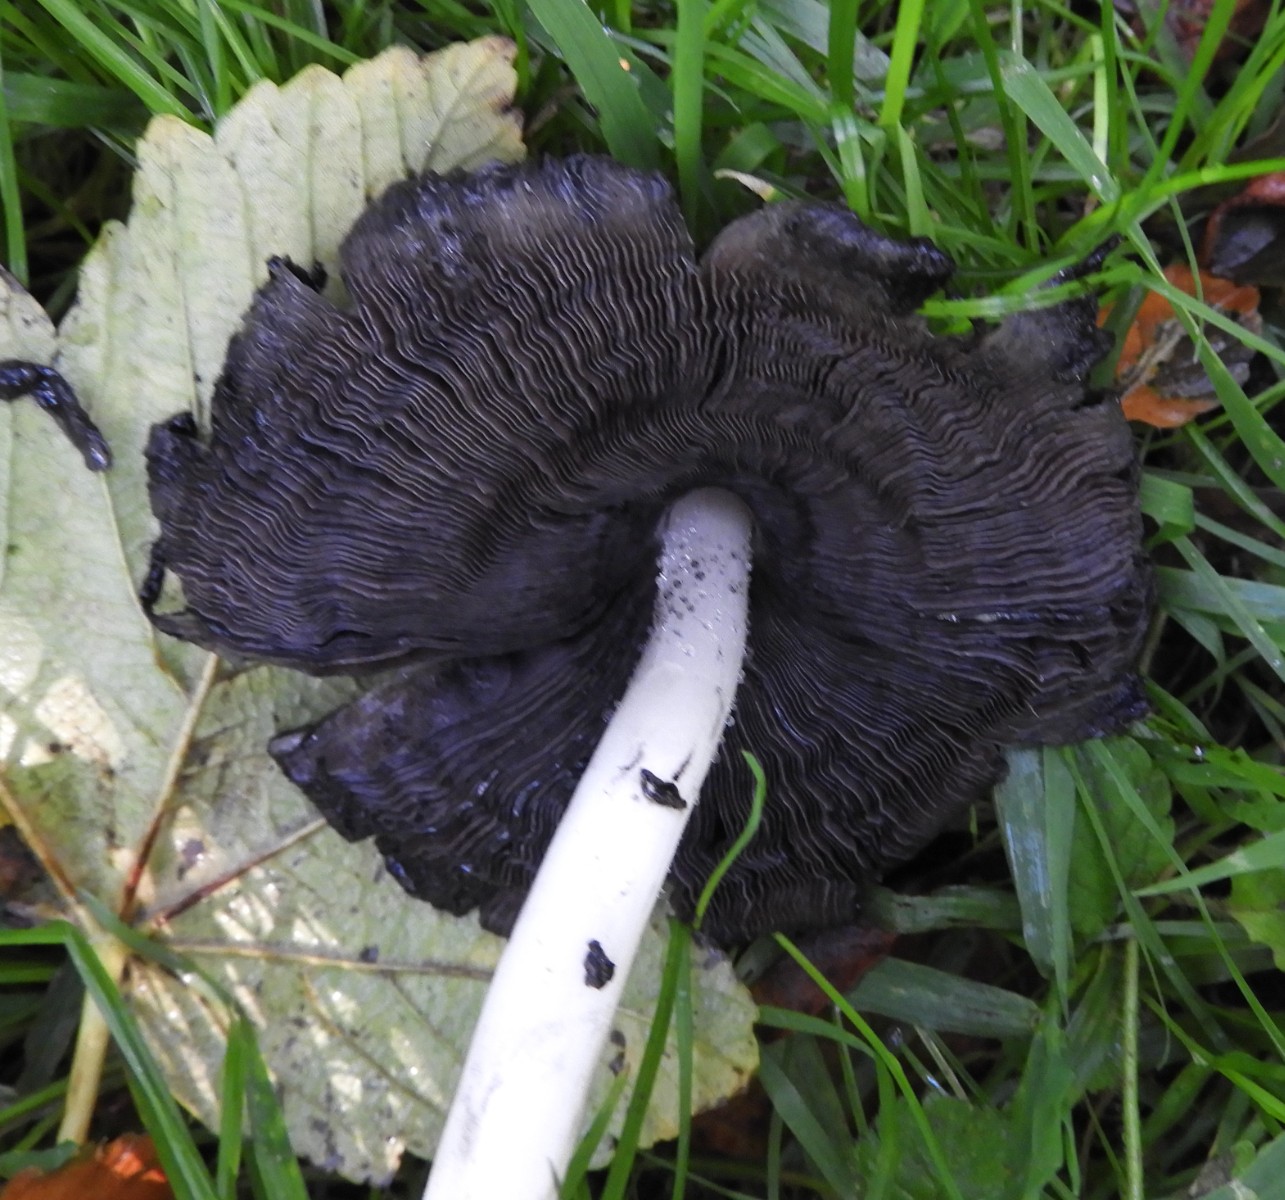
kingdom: Fungi
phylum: Basidiomycota
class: Agaricomycetes
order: Agaricales
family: Psathyrellaceae
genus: Coprinopsis
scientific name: Coprinopsis atramentaria
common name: almindelig blækhat
